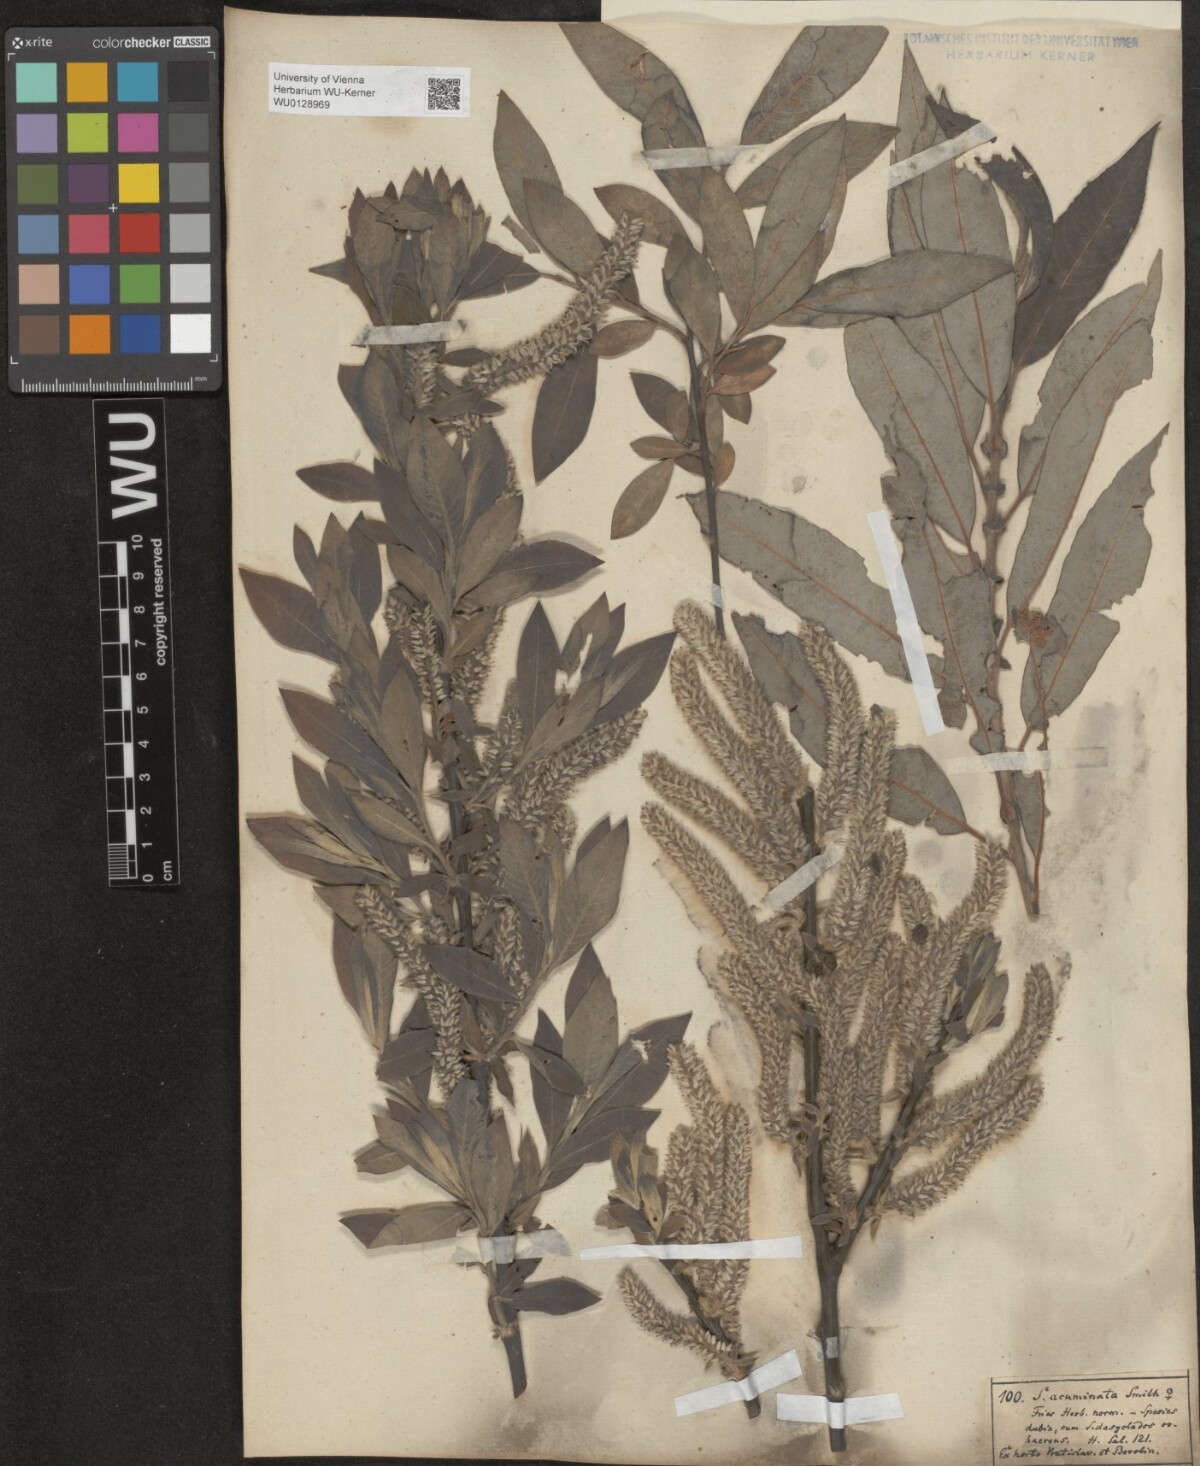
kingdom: Plantae
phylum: Tracheophyta
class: Magnoliopsida
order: Malpighiales
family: Salicaceae
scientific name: Salicaceae
